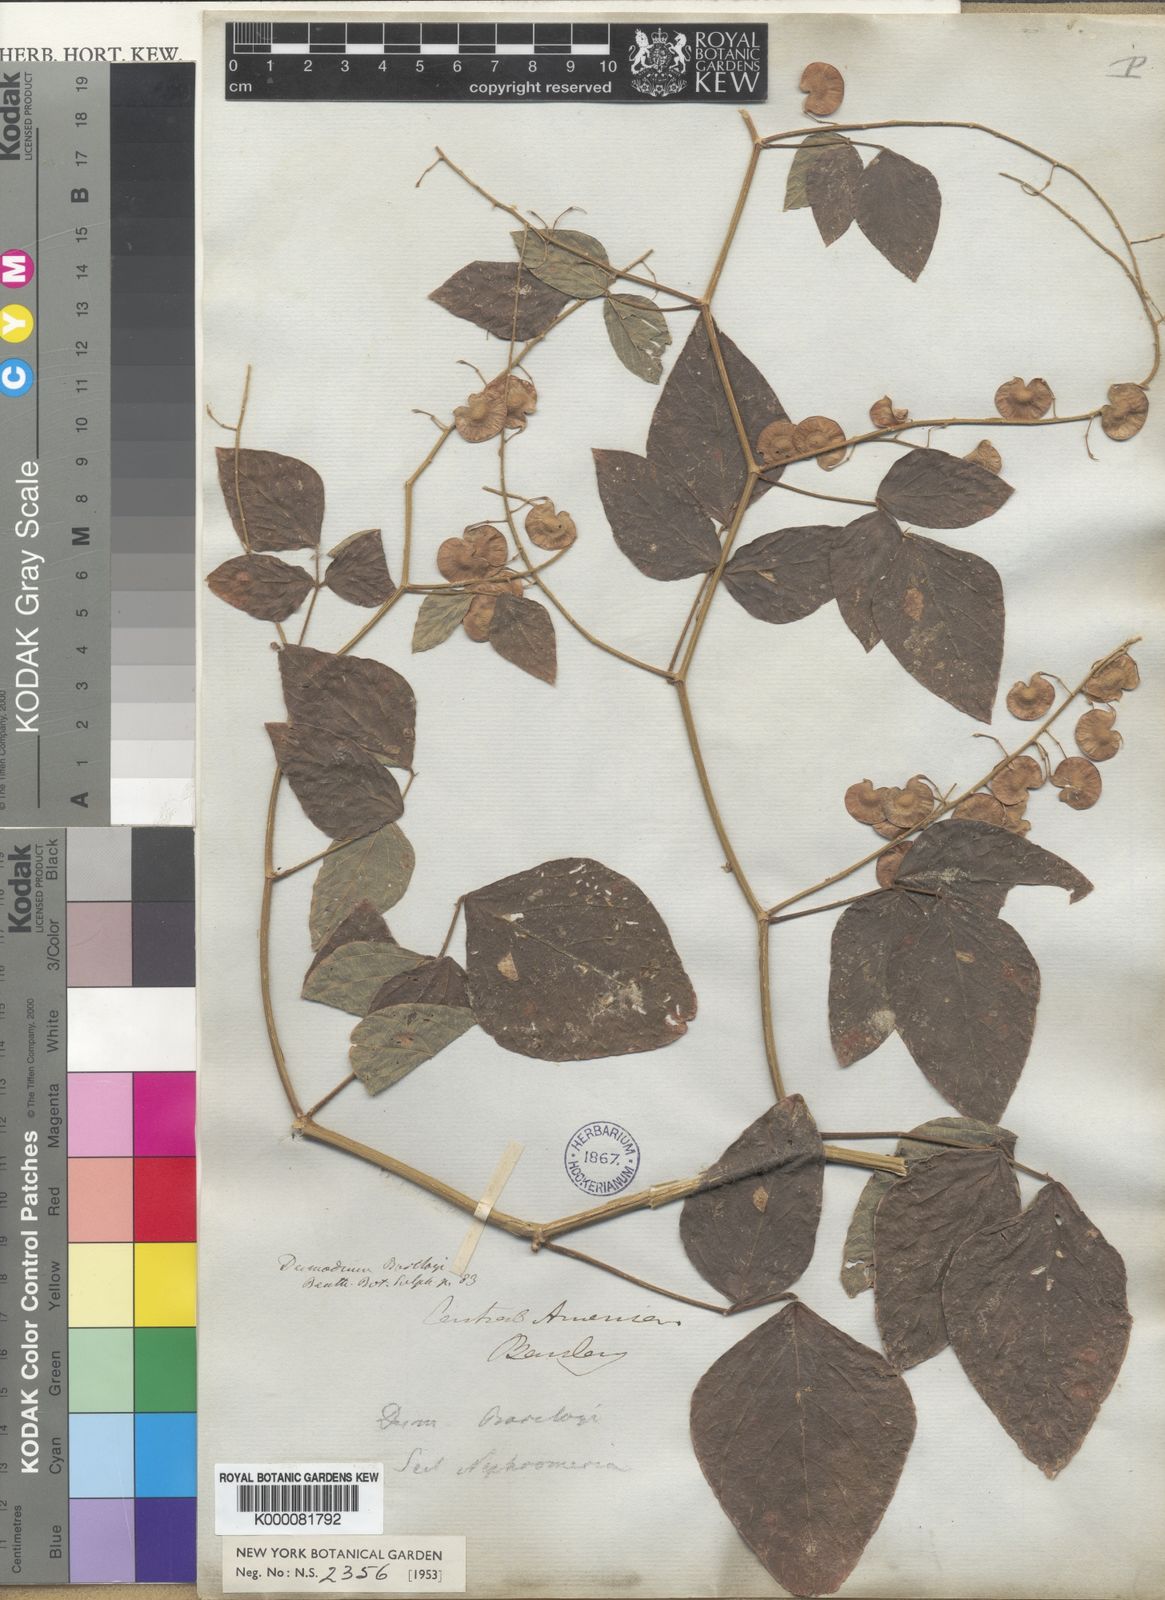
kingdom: Plantae
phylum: Tracheophyta
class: Magnoliopsida
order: Fabales
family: Fabaceae
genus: Desmodium
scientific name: Desmodium infractum
